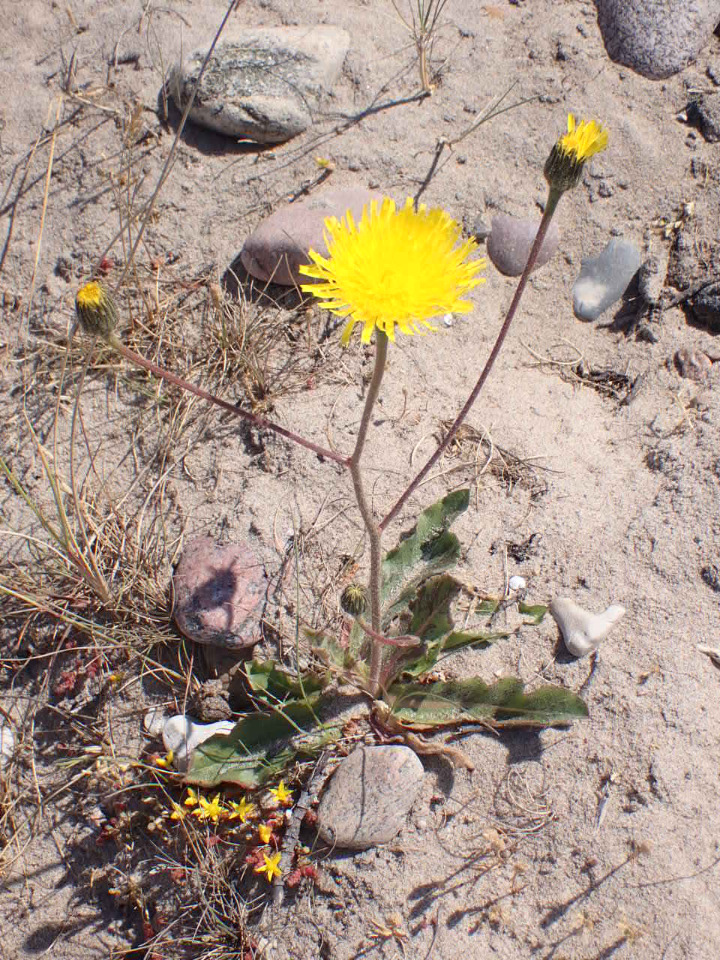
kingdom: Plantae
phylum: Tracheophyta
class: Magnoliopsida
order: Asterales
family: Asteraceae
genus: Trommsdorffia
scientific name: Trommsdorffia maculata
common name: Plettet kongepen
